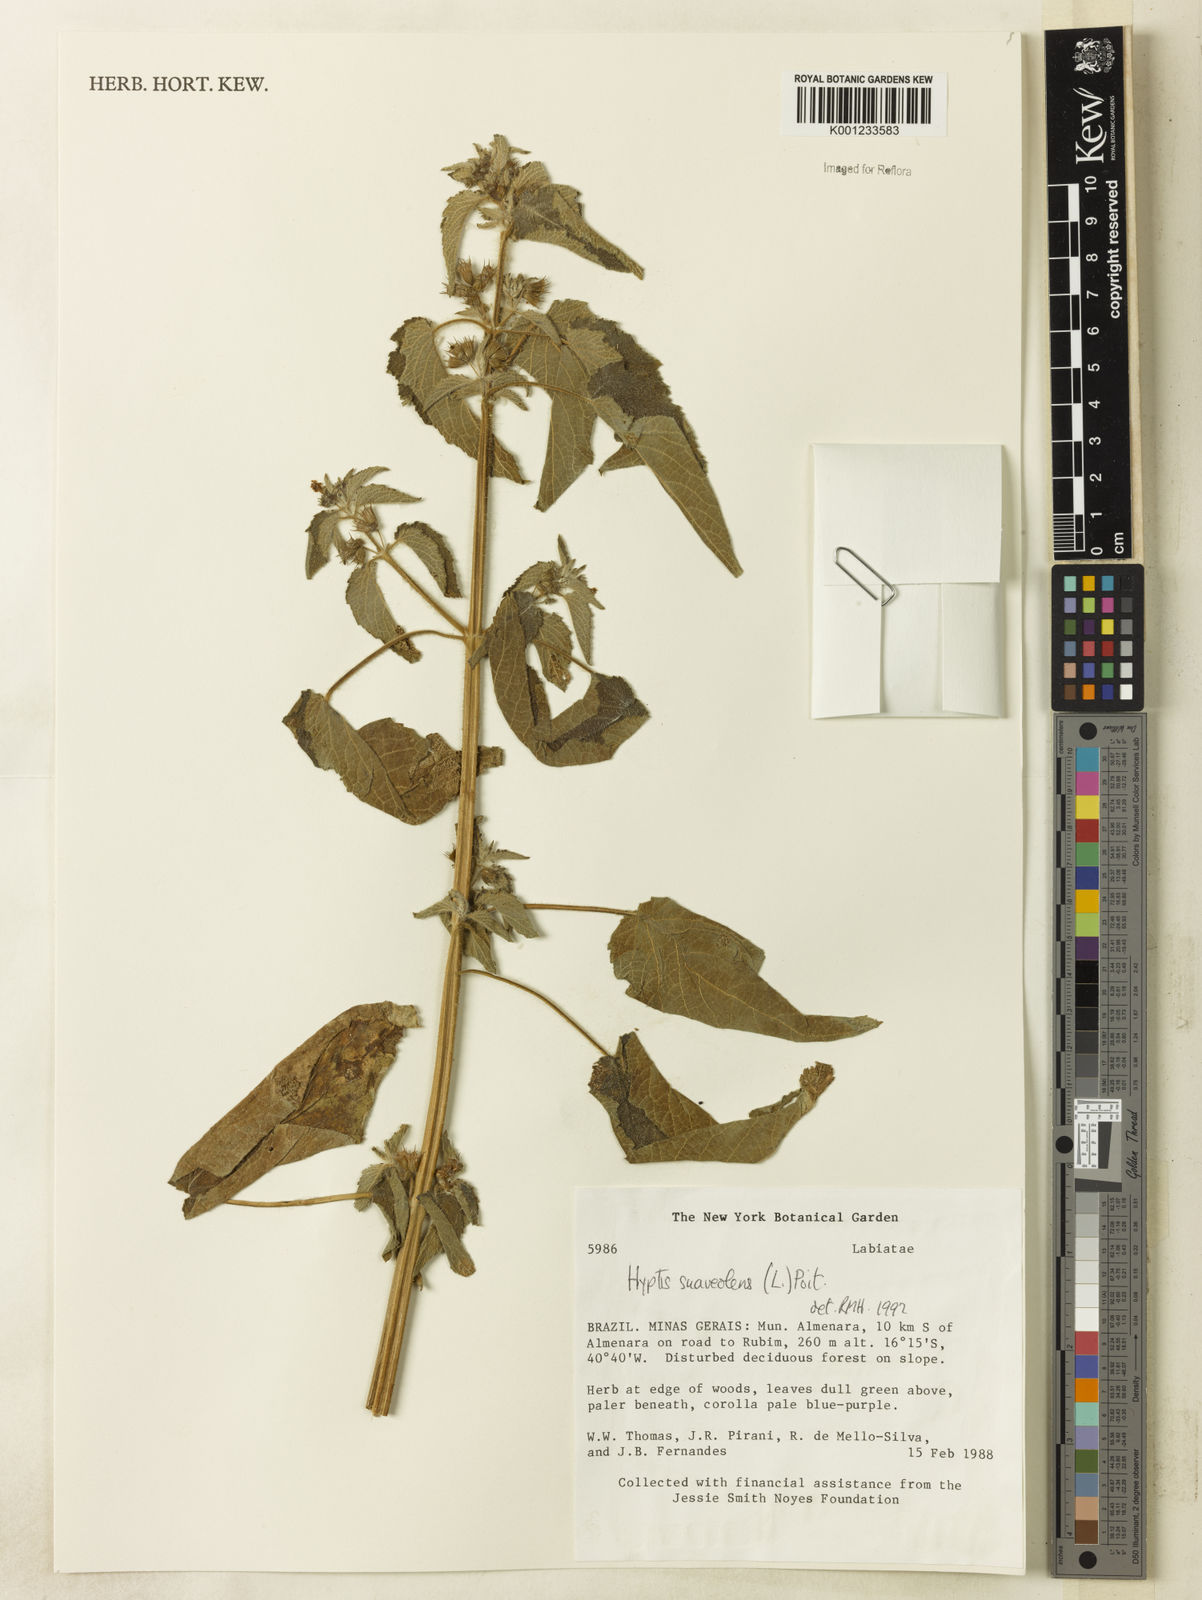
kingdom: Plantae
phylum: Tracheophyta
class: Magnoliopsida
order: Lamiales
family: Lamiaceae
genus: Mesosphaerum
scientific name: Mesosphaerum suaveolens
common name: Pignut
